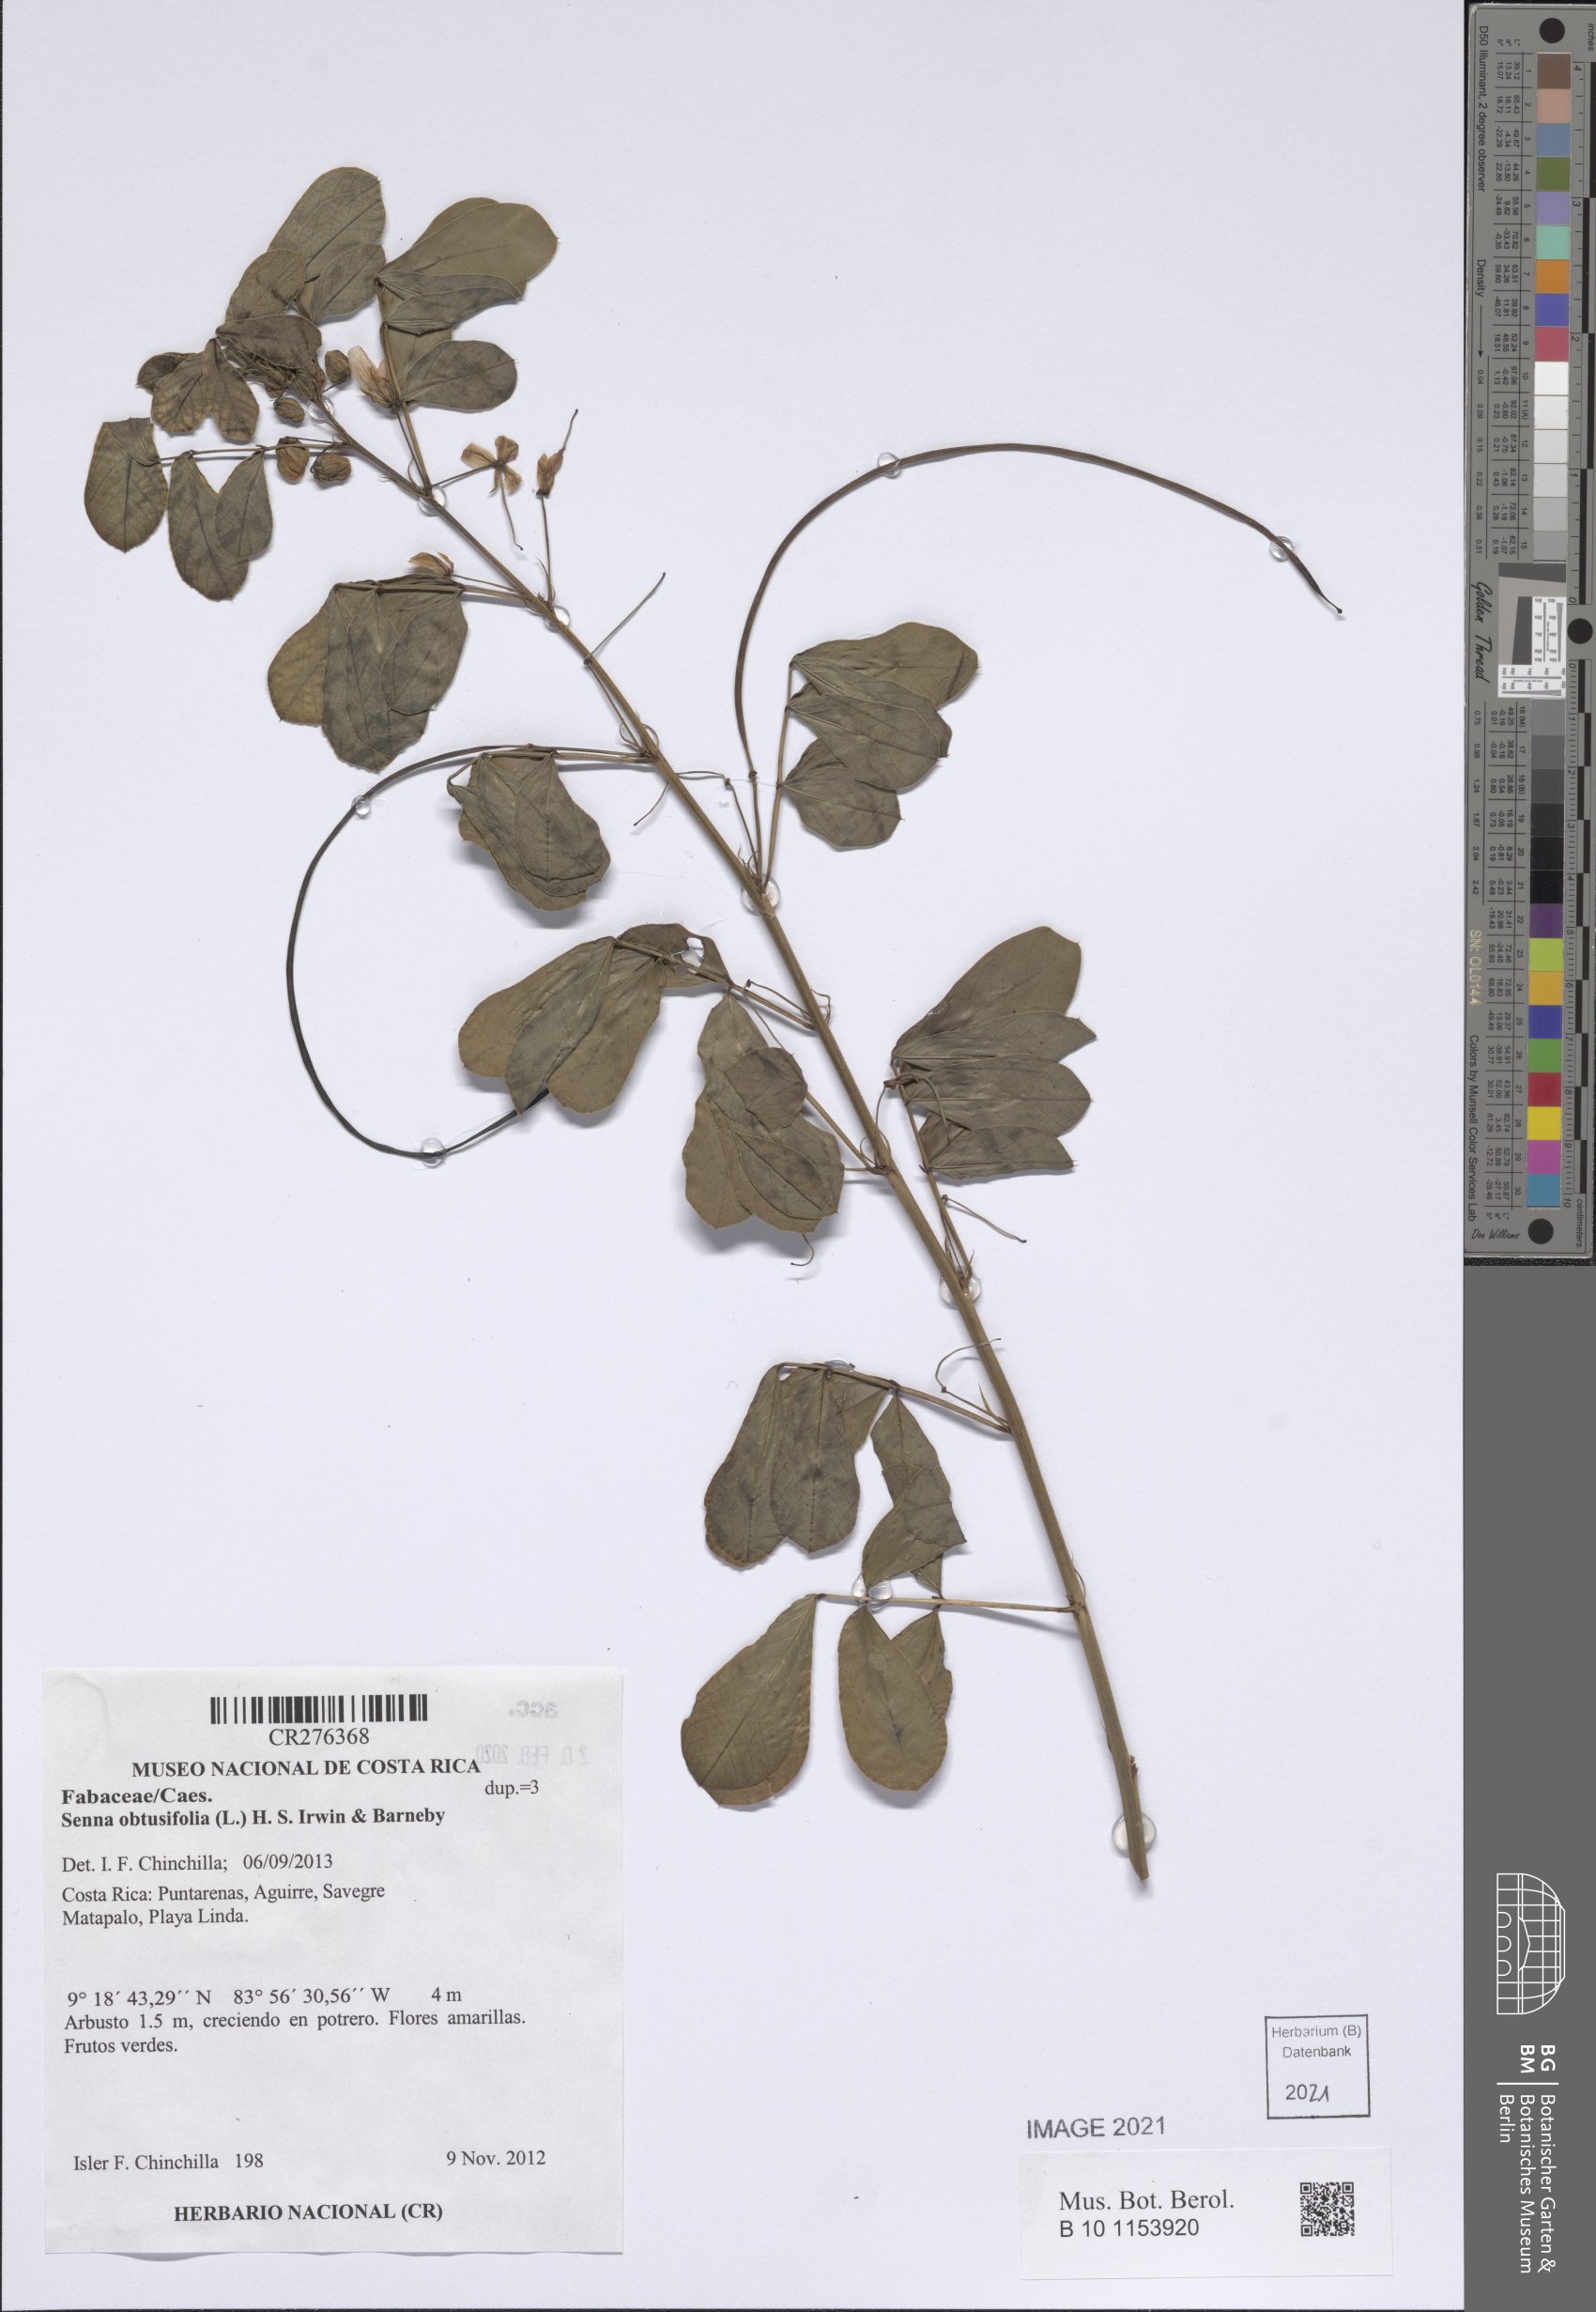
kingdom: Plantae
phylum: Tracheophyta
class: Magnoliopsida
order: Fabales
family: Fabaceae
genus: Senna
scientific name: Senna obtusifolia
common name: Java-bean
